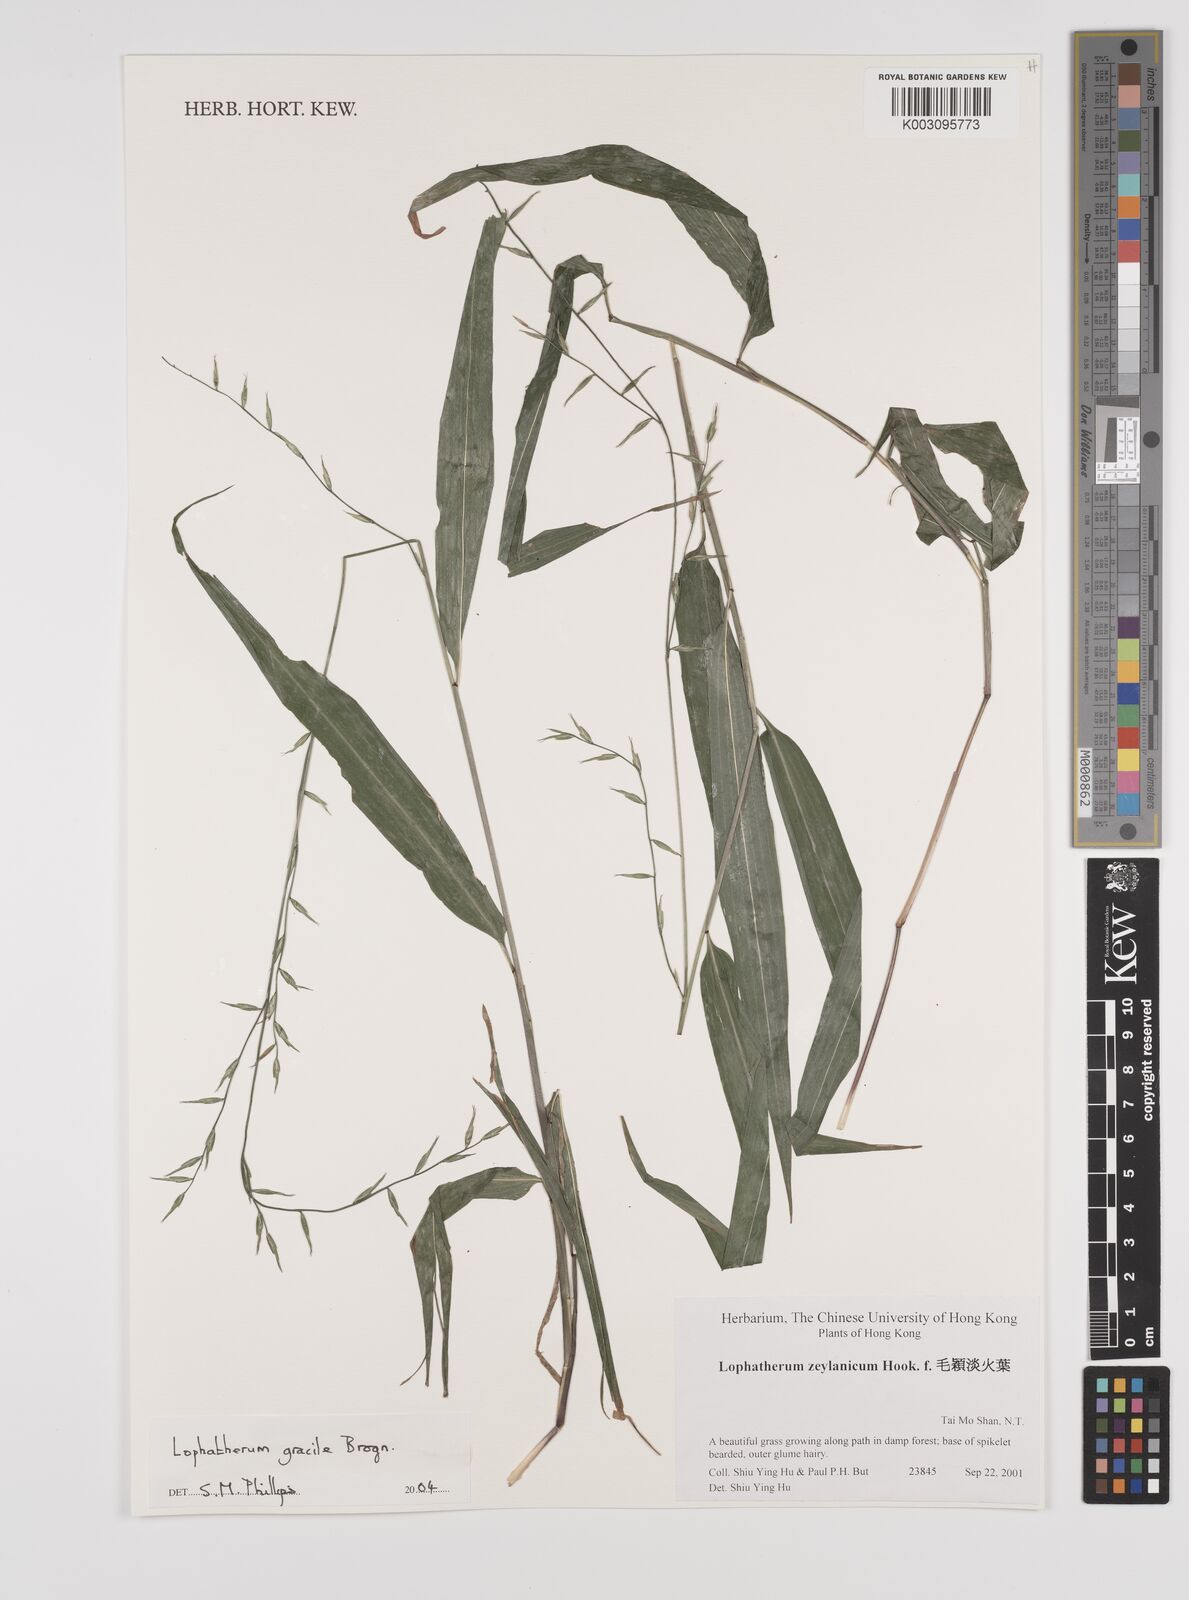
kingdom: Plantae
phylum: Tracheophyta
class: Liliopsida
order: Poales
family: Poaceae
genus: Lophatherum
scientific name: Lophatherum gracile
